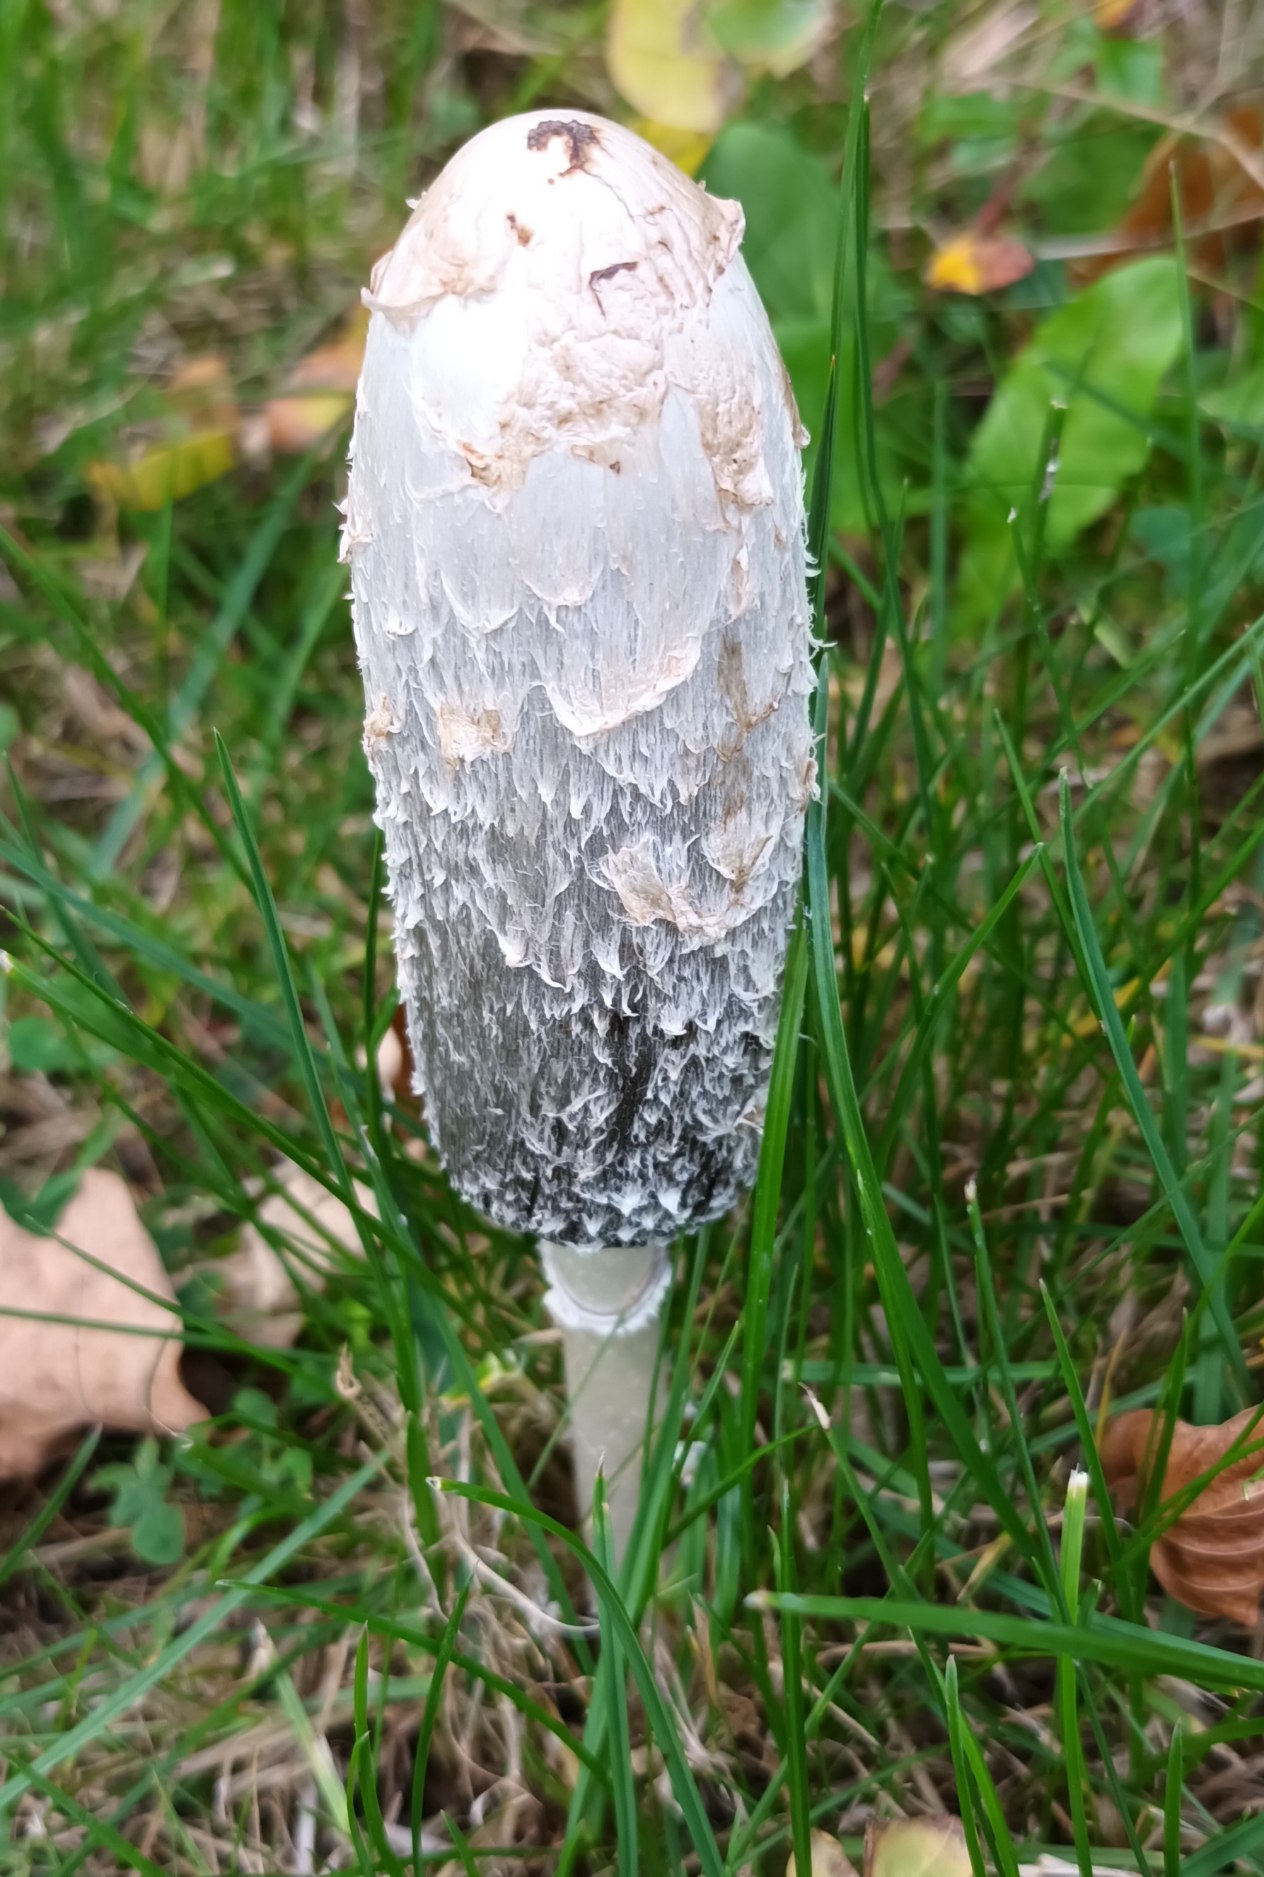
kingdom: Fungi
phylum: Basidiomycota
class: Agaricomycetes
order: Agaricales
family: Agaricaceae
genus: Coprinus
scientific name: Coprinus comatus
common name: Stor parykhat
